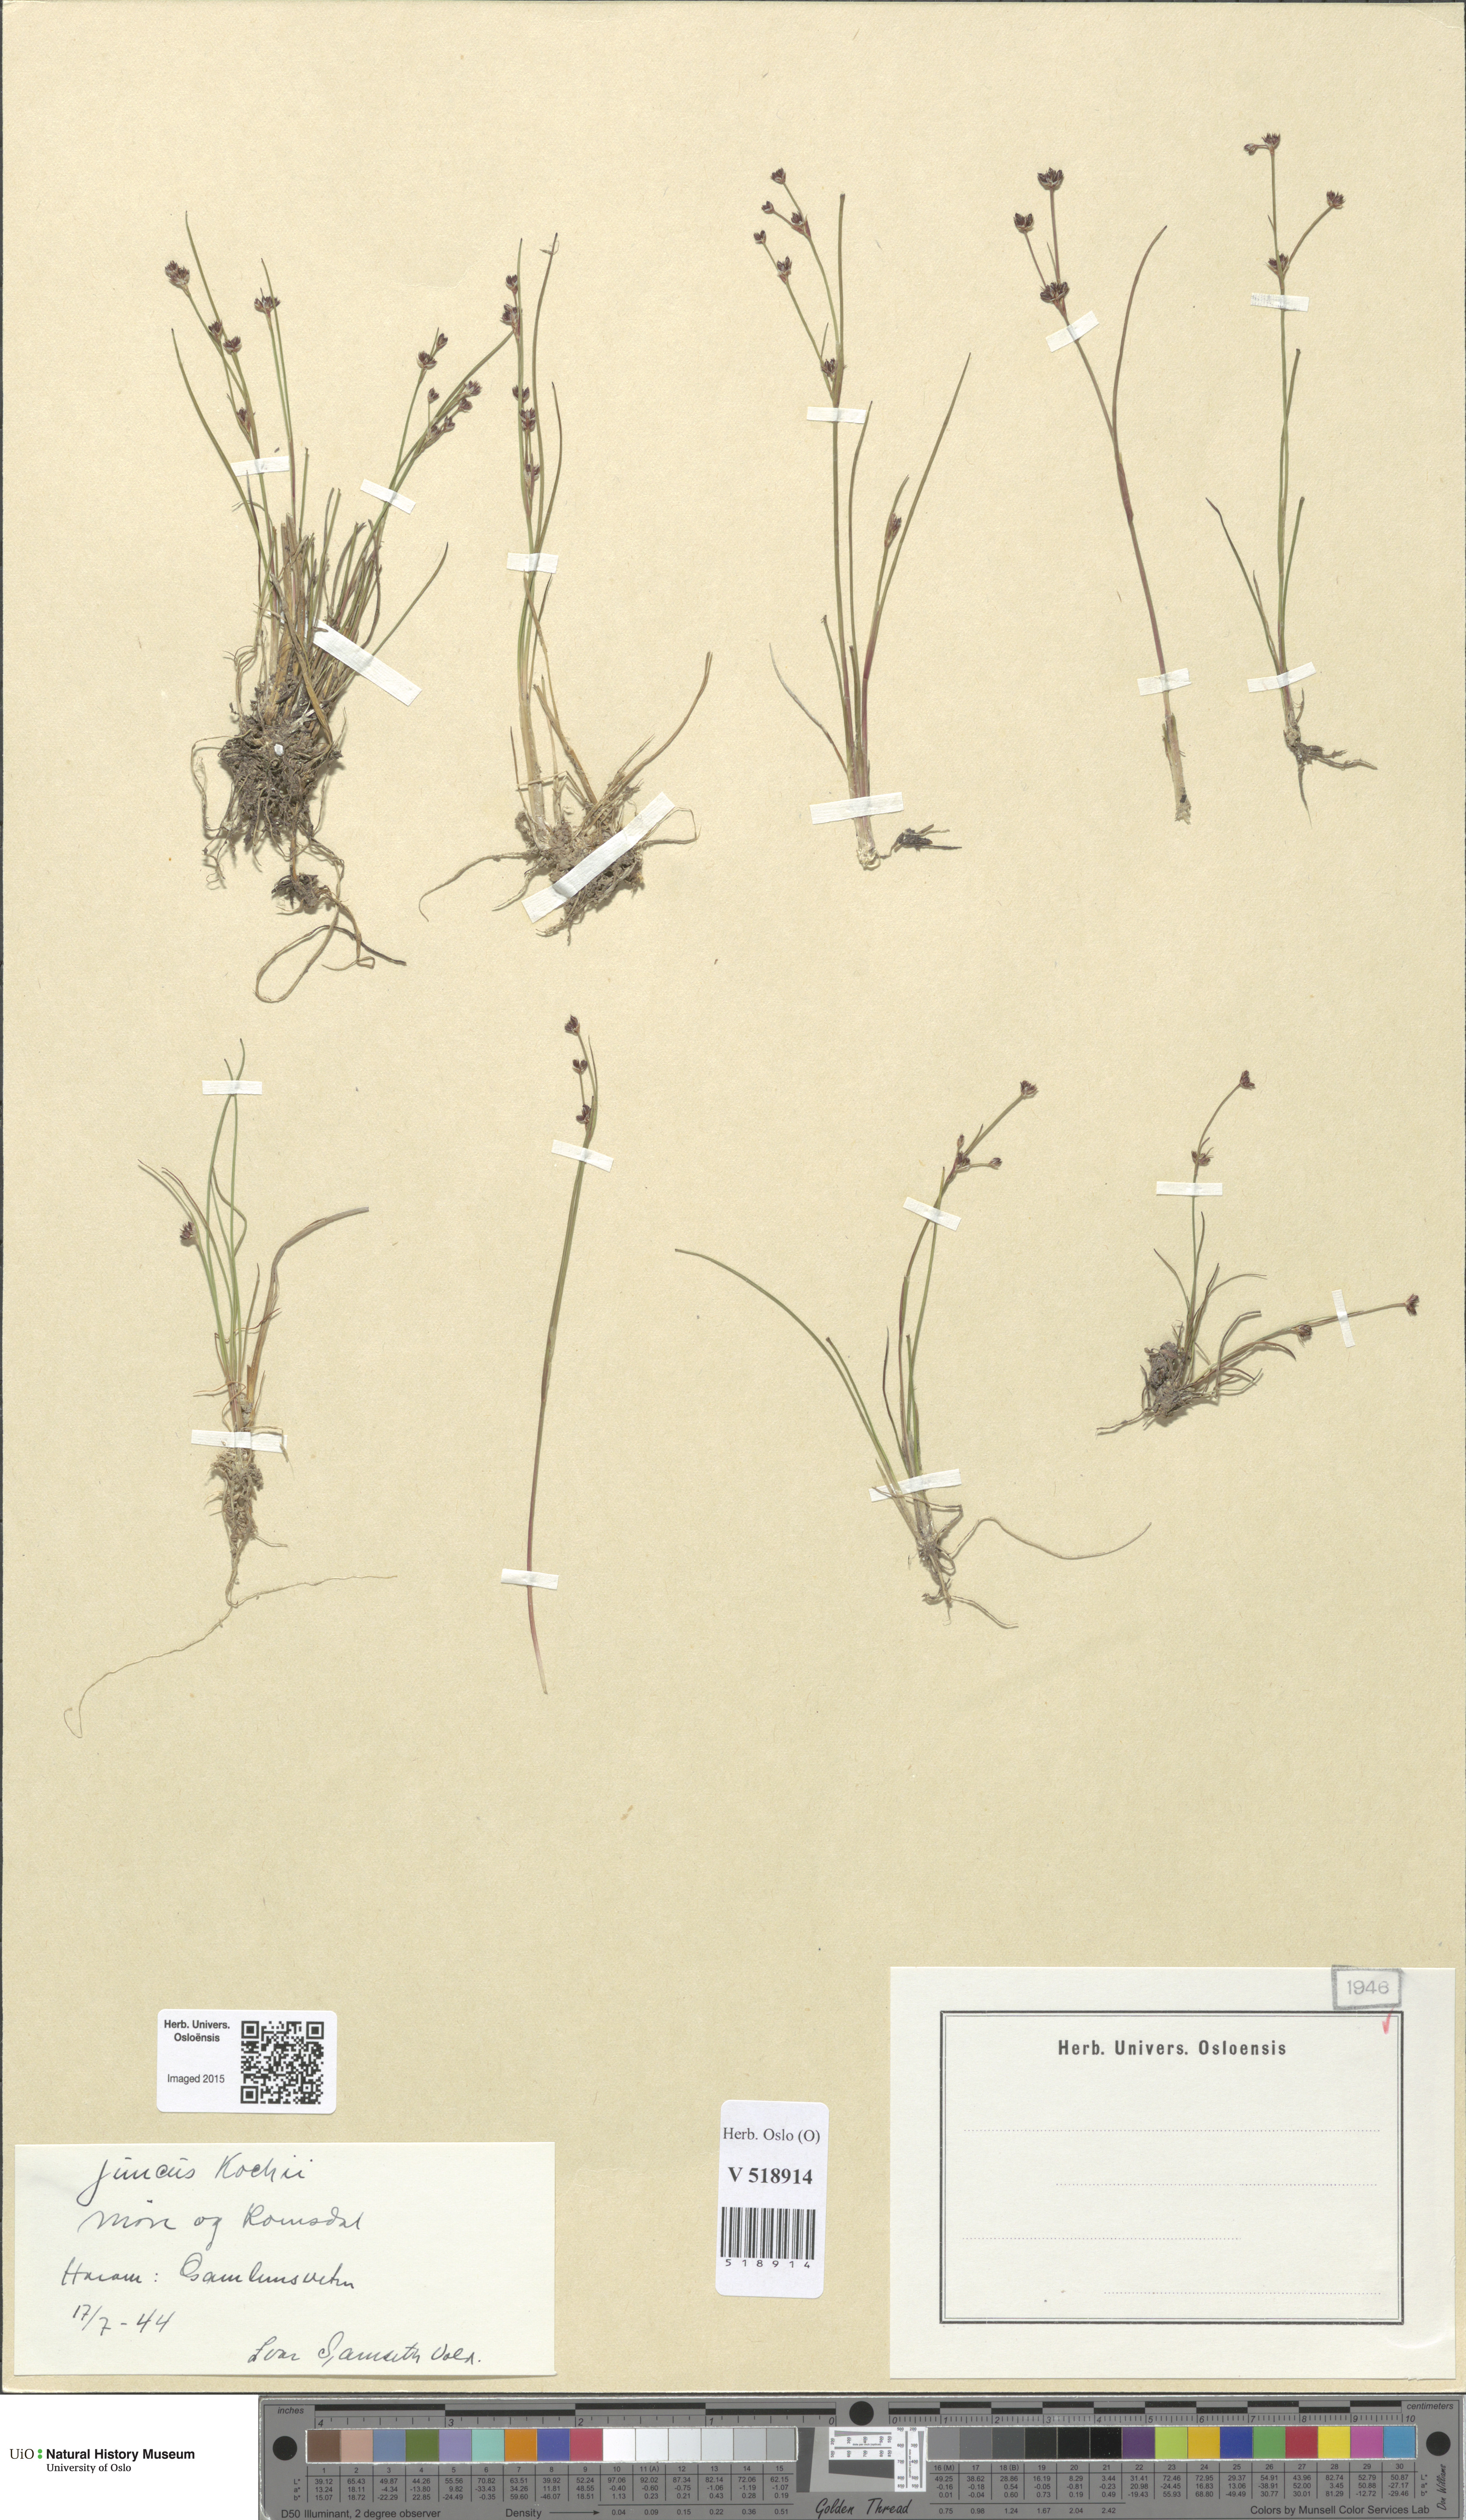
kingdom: Plantae
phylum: Tracheophyta
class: Liliopsida
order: Poales
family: Juncaceae
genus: Juncus
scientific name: Juncus bulbosus
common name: Bulbous rush
